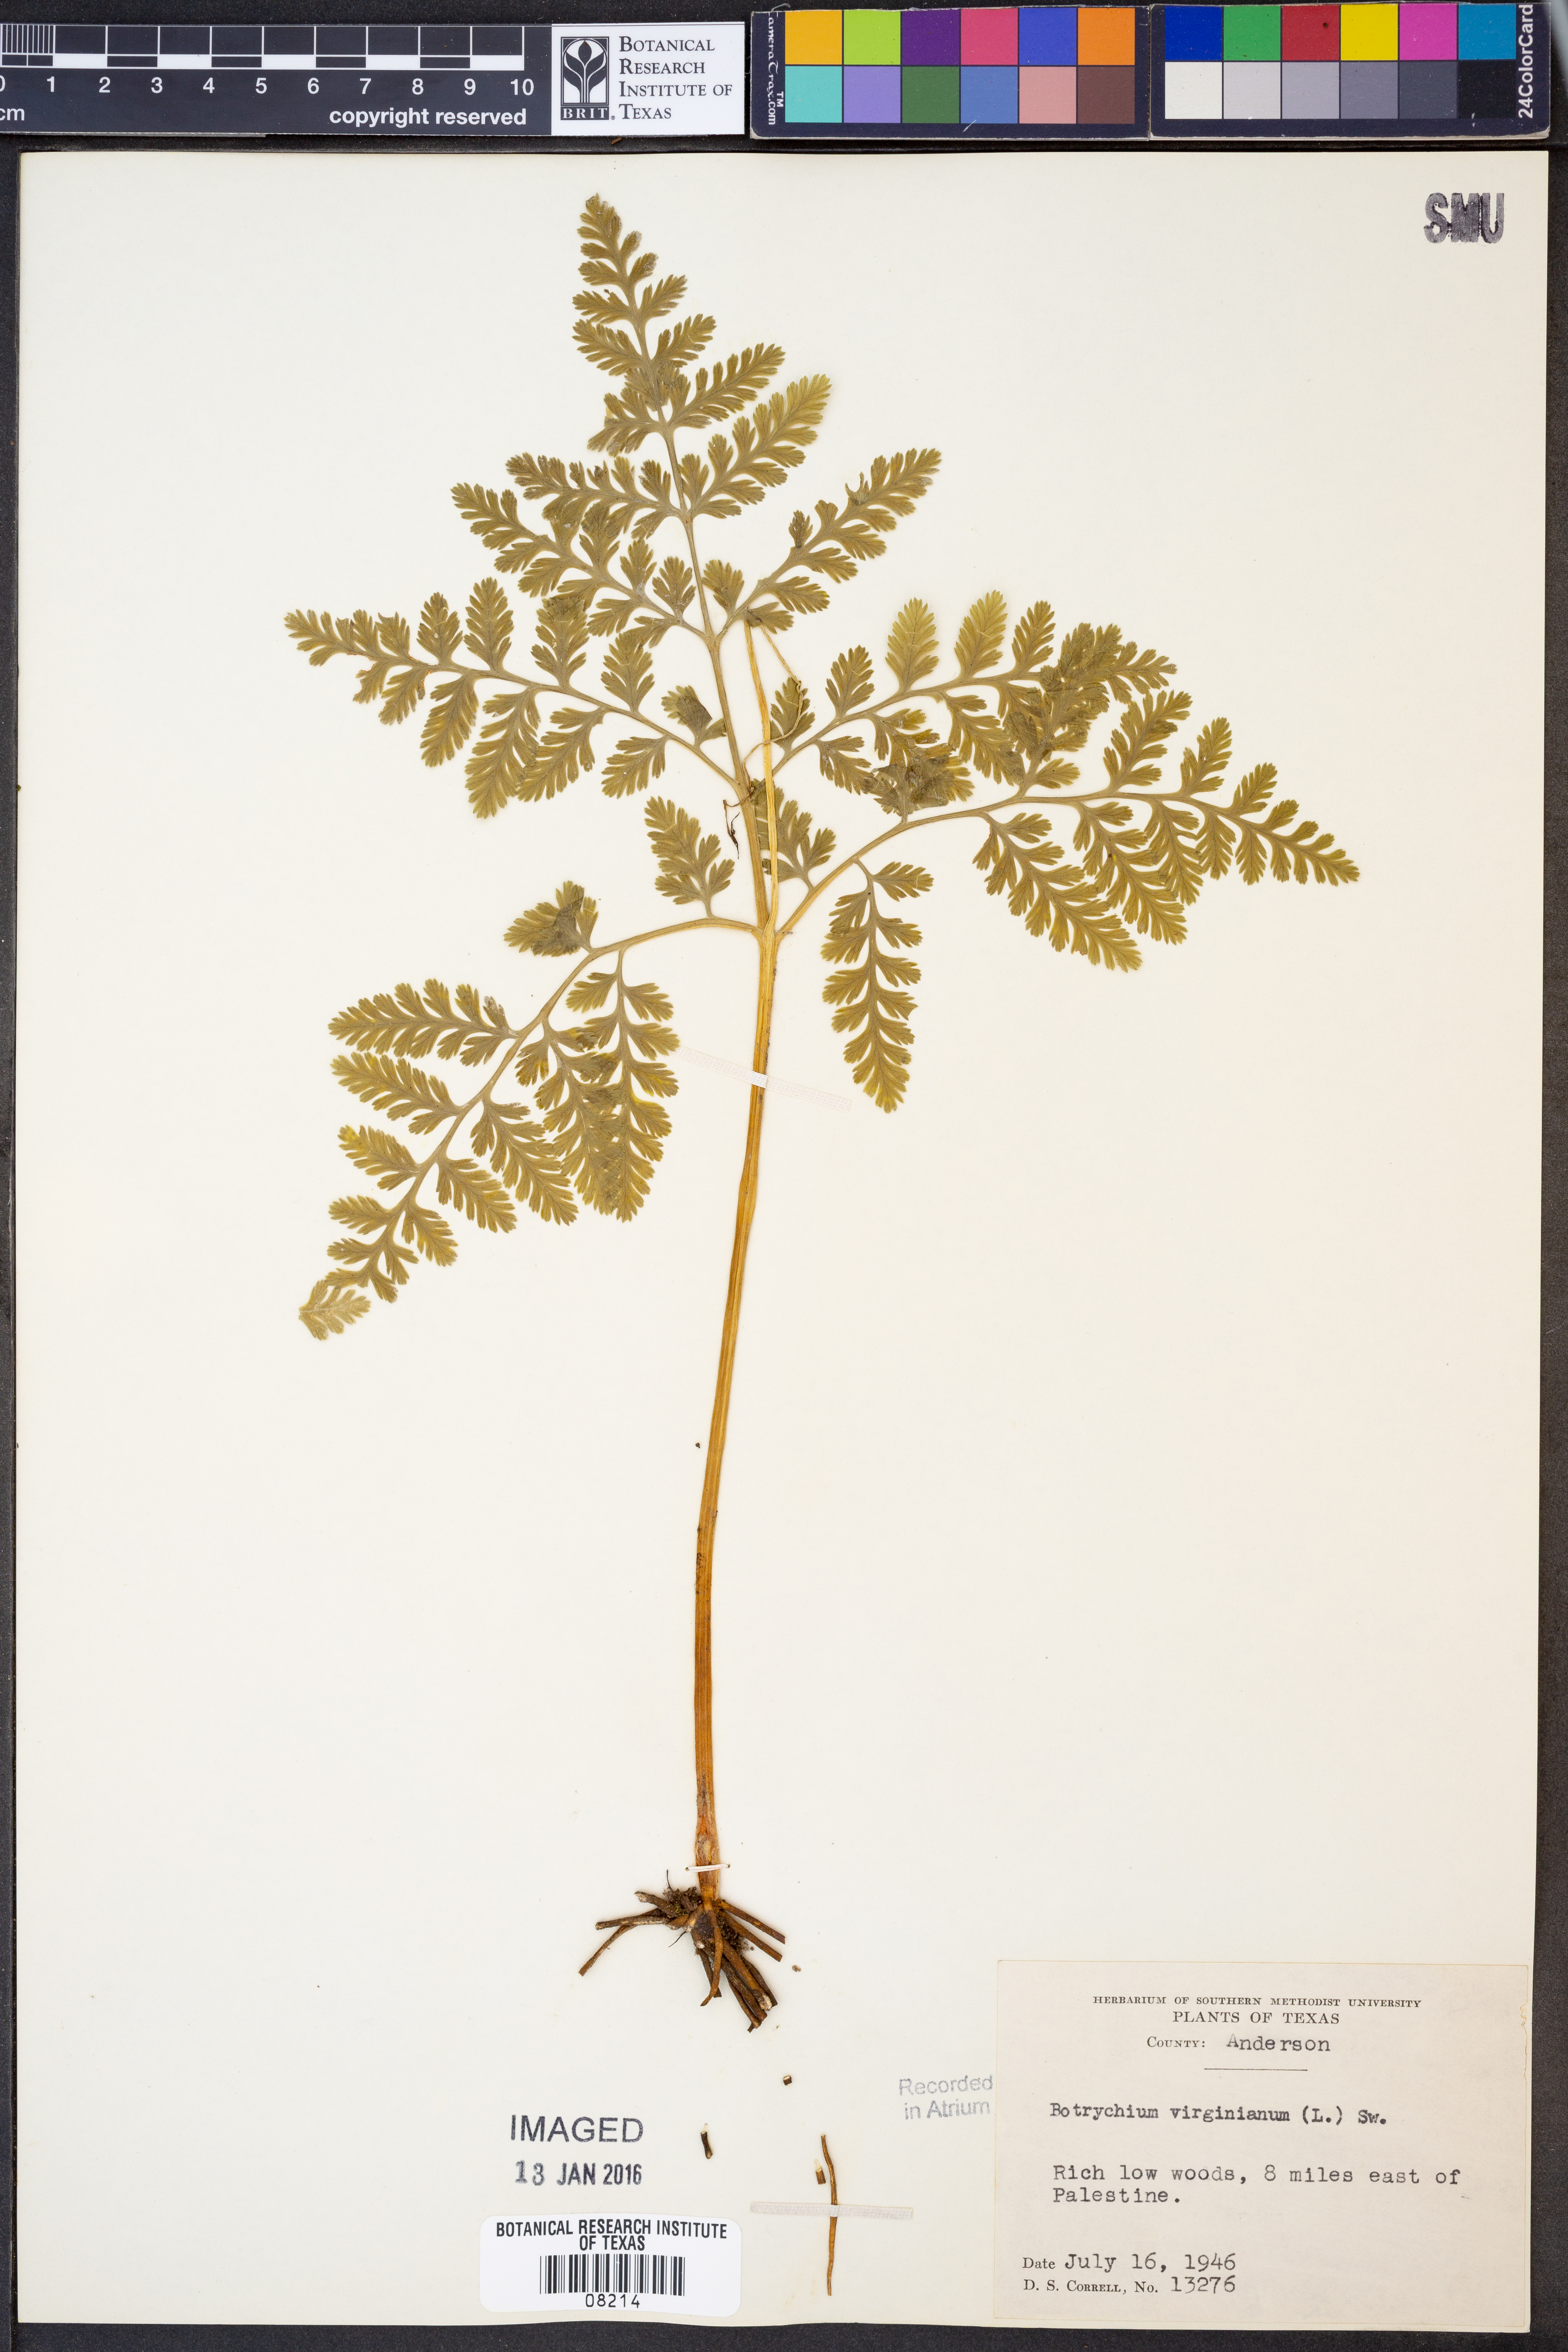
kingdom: Plantae
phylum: Tracheophyta
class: Polypodiopsida
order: Ophioglossales
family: Ophioglossaceae
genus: Botrypus
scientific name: Botrypus virginianus
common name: Common grapefern
